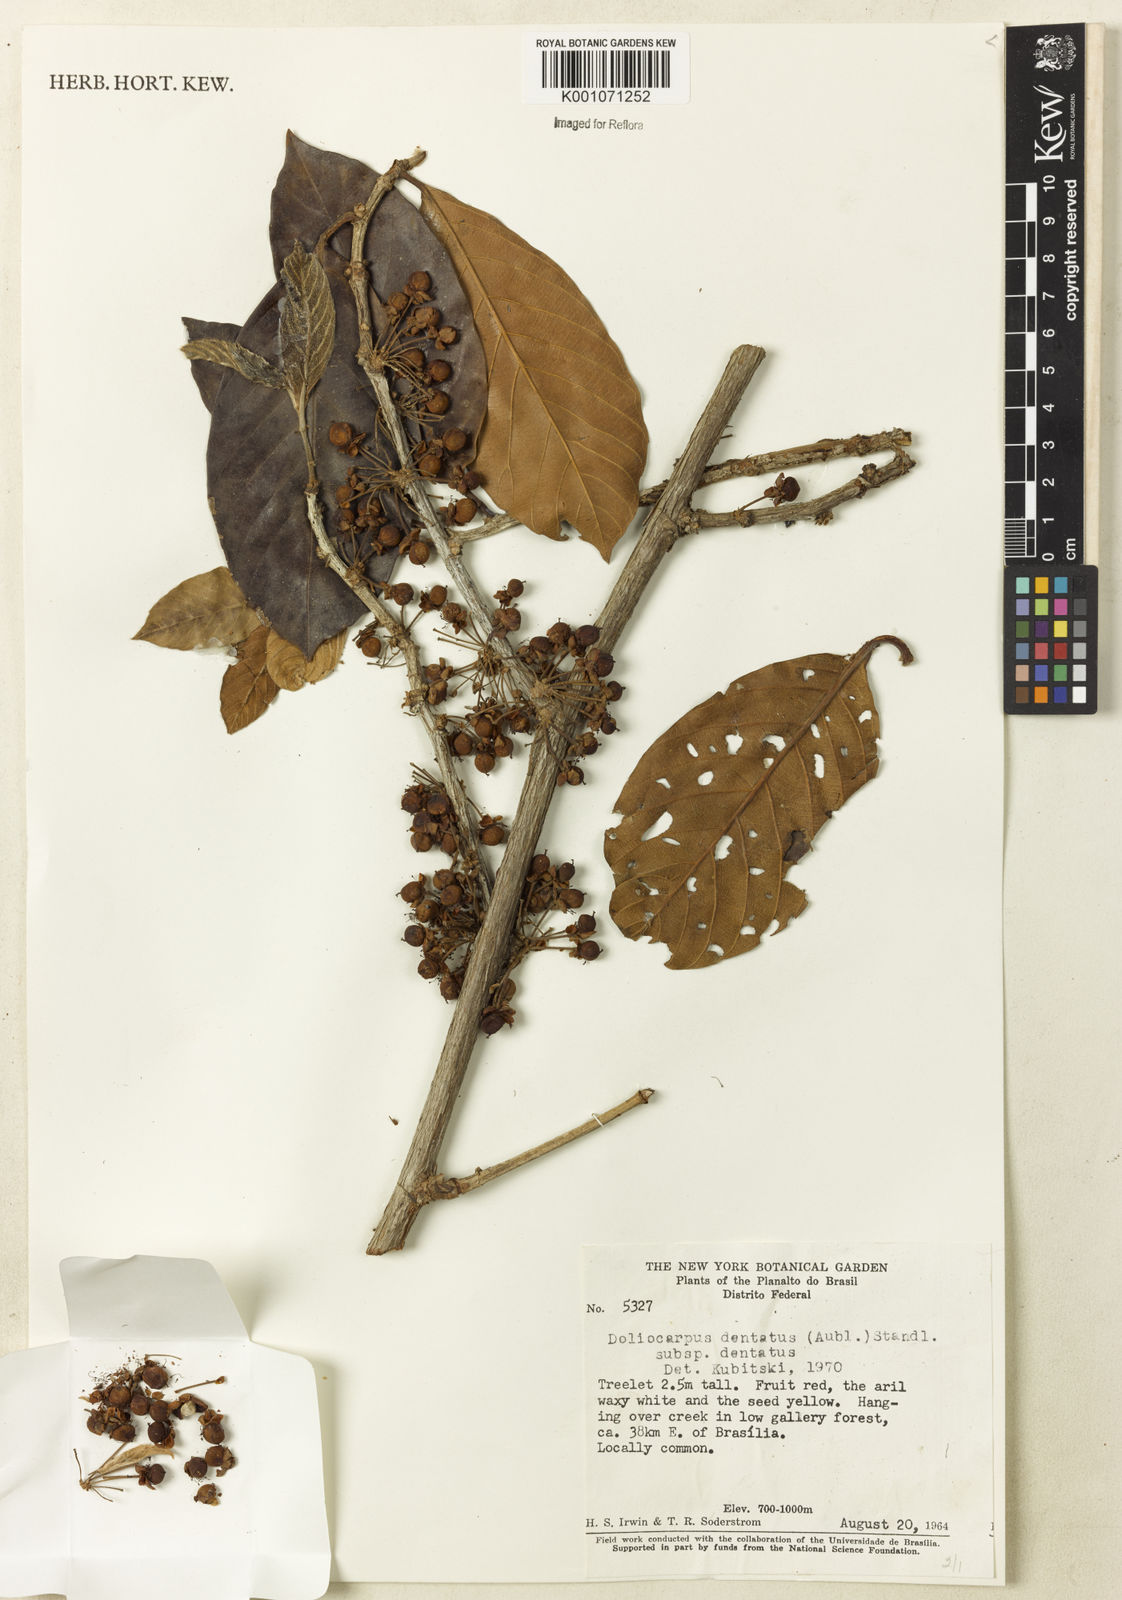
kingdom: Plantae
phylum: Tracheophyta
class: Magnoliopsida
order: Dilleniales
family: Dilleniaceae
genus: Doliocarpus
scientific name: Doliocarpus dentatus
